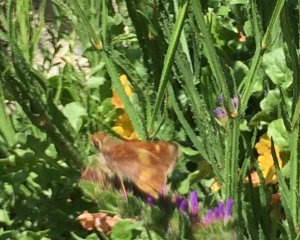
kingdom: Animalia
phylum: Arthropoda
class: Insecta
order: Lepidoptera
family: Hesperiidae
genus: Lon
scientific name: Lon melane
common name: Umber Skipper
